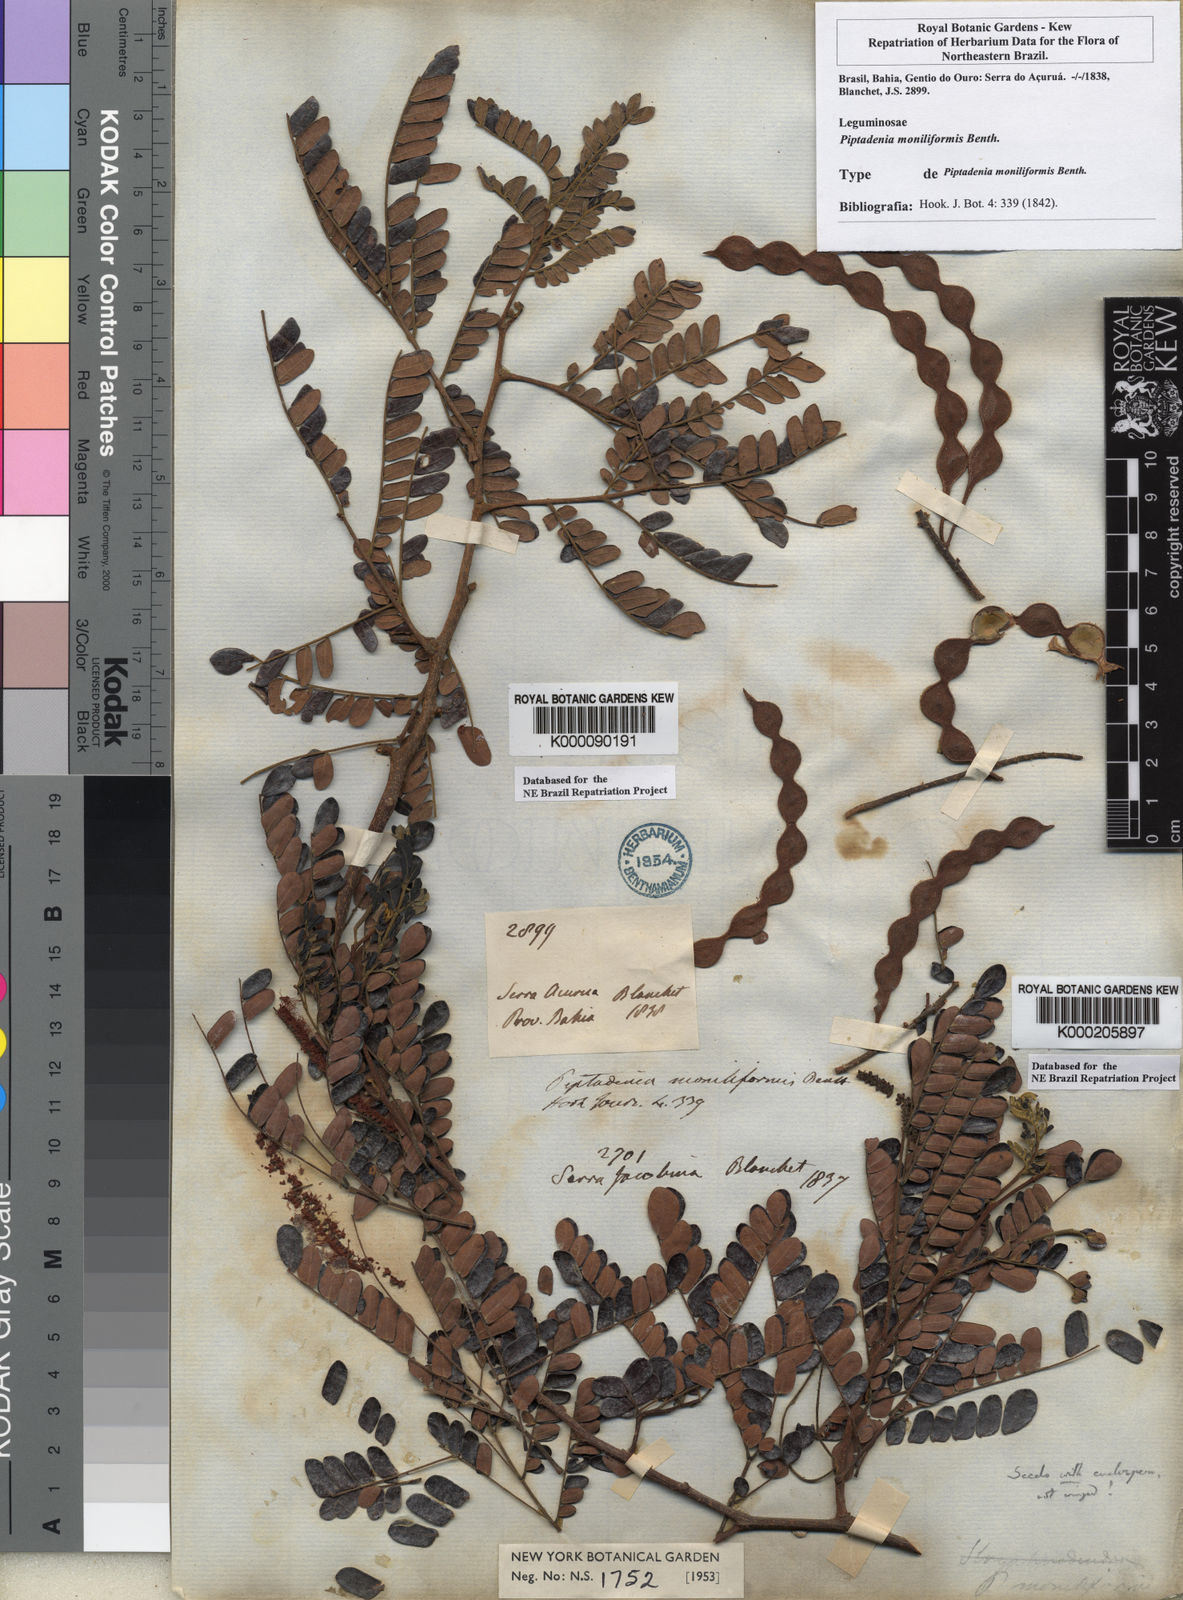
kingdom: Plantae
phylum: Tracheophyta
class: Magnoliopsida
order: Fabales
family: Fabaceae
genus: Pityrocarpa
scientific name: Pityrocarpa moniliformis
